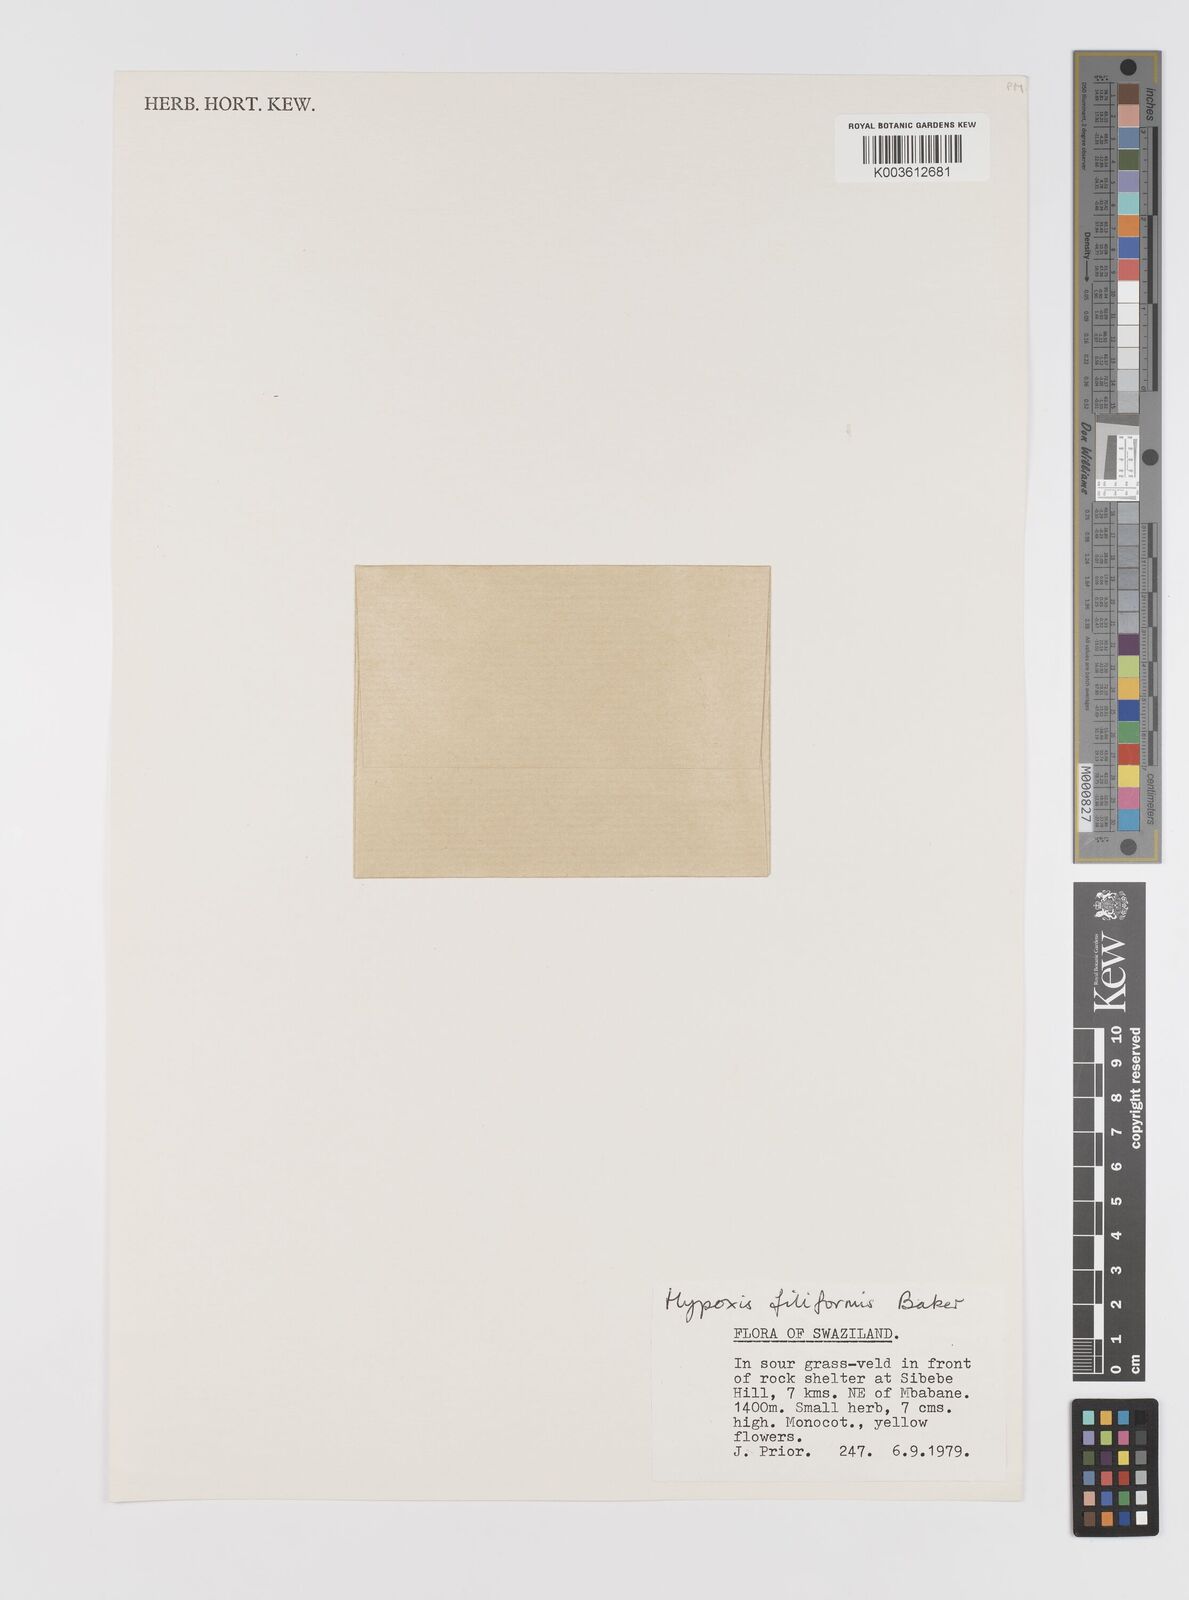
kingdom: Plantae
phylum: Tracheophyta
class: Liliopsida
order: Asparagales
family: Hypoxidaceae
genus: Hypoxis
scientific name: Hypoxis filiformis
